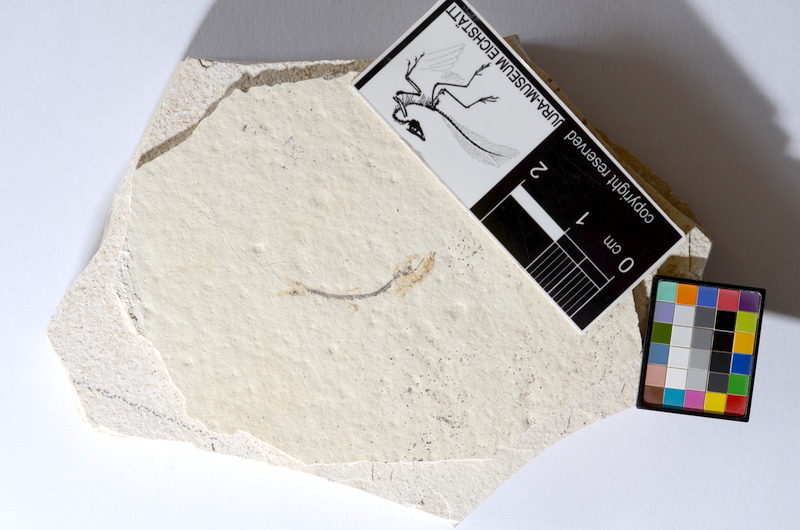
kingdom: Animalia
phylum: Chordata
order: Salmoniformes
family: Orthogonikleithridae
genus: Orthogonikleithrus
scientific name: Orthogonikleithrus hoelli
